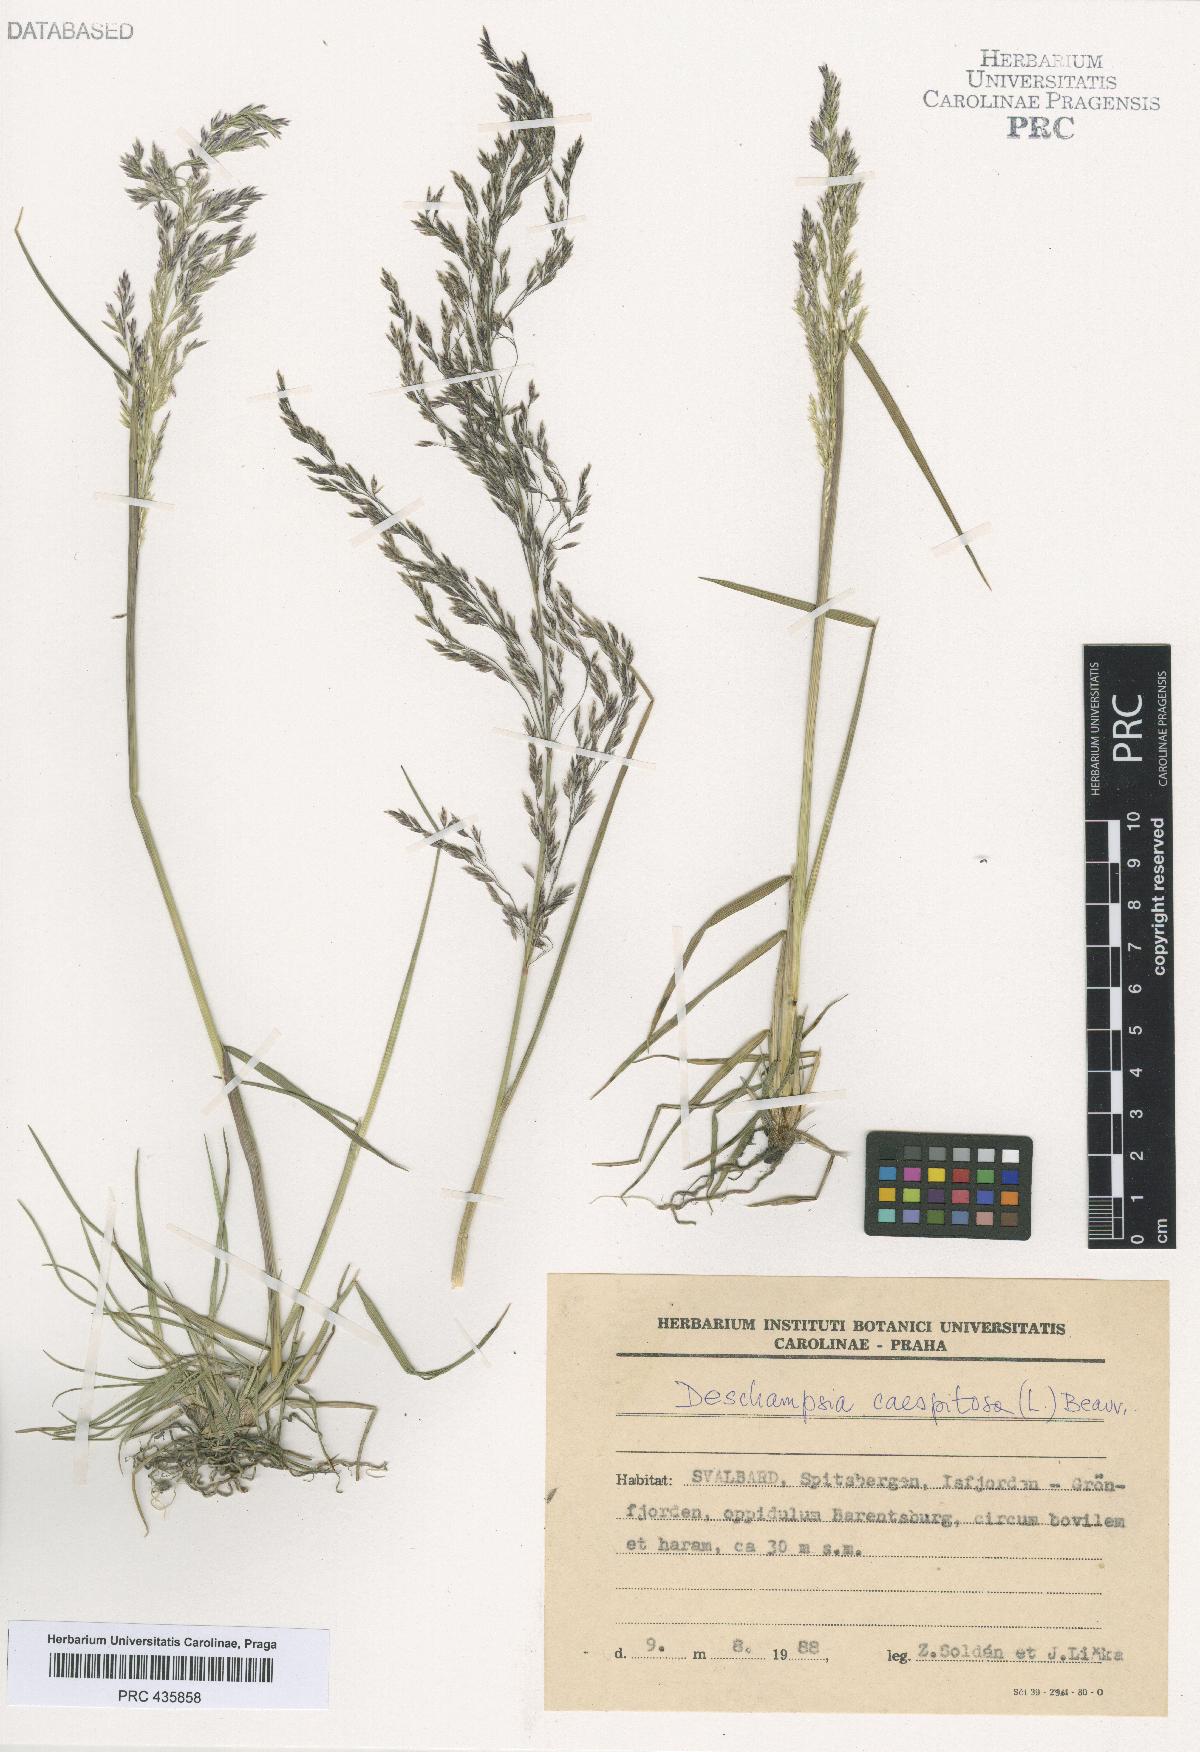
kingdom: Plantae
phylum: Tracheophyta
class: Liliopsida
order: Poales
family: Poaceae
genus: Deschampsia
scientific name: Deschampsia cespitosa
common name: Tufted hair-grass
